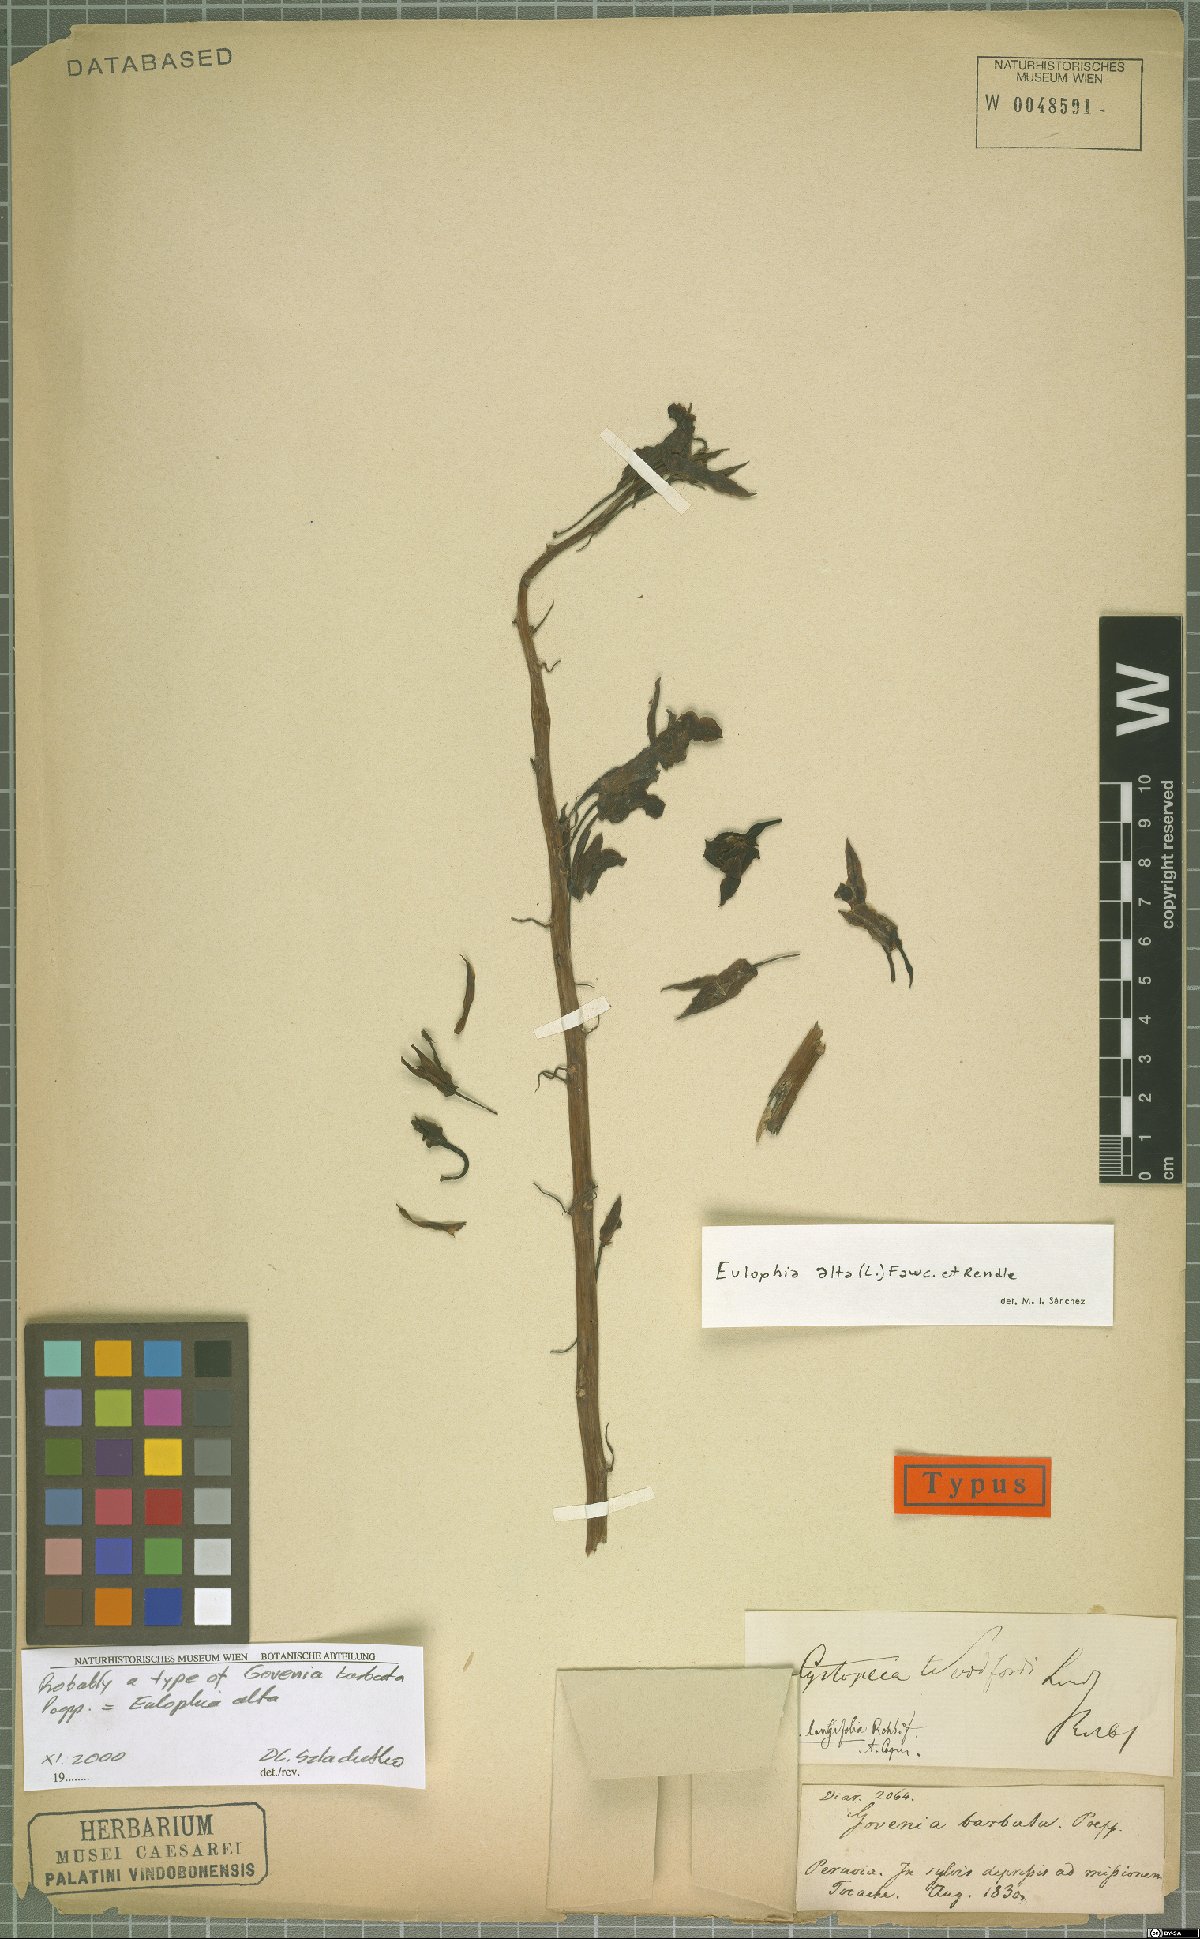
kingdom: Plantae
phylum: Tracheophyta
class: Liliopsida
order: Asparagales
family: Orchidaceae
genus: Eulophia
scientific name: Eulophia alta
